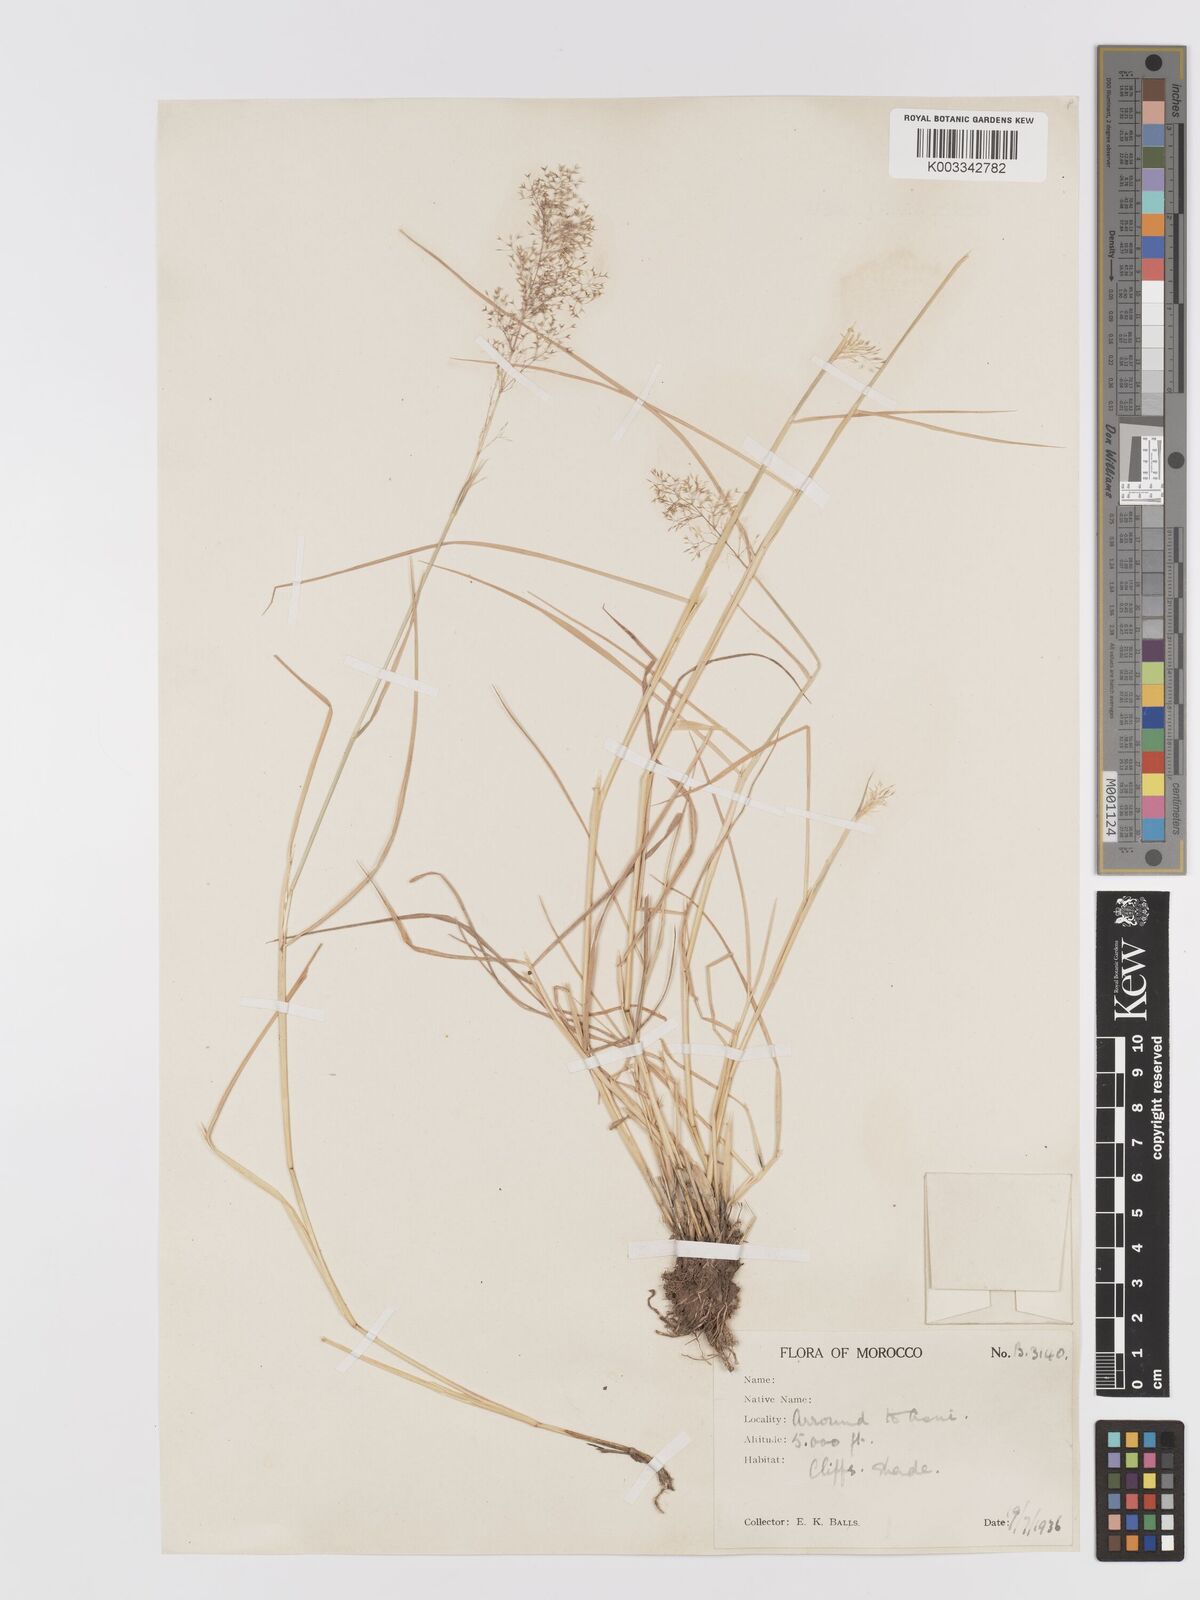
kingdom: Plantae
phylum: Tracheophyta
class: Liliopsida
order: Poales
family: Poaceae
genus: Agrostis
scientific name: Agrostis nebulosa
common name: Cloud grass
